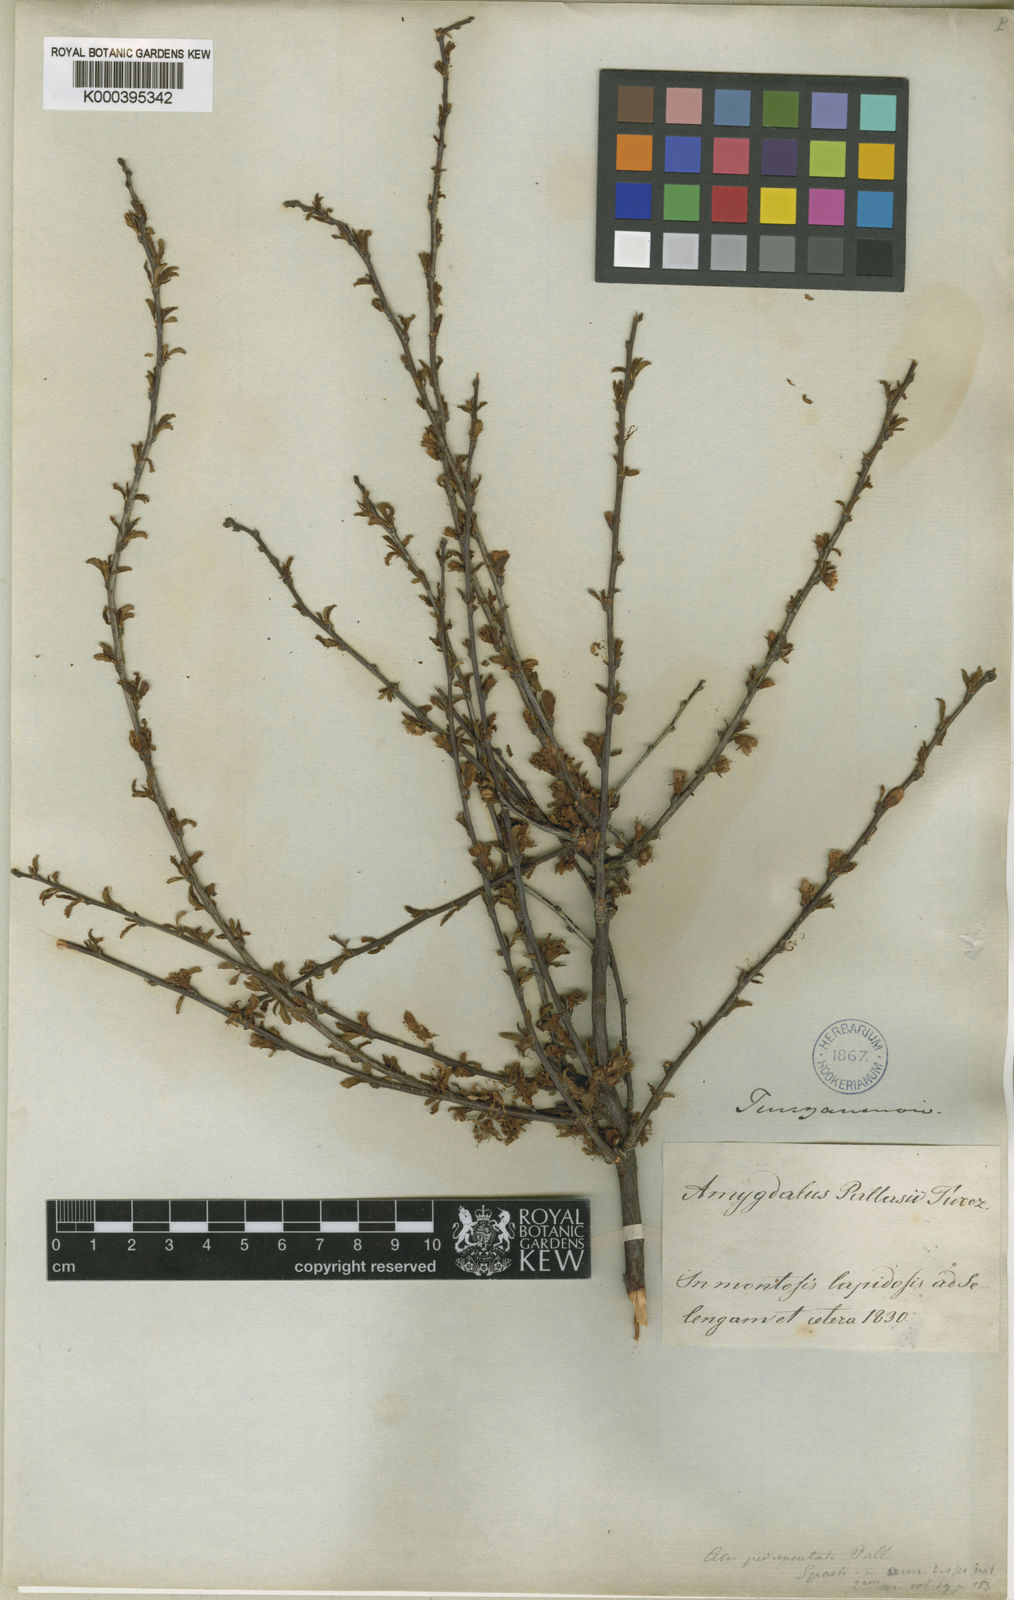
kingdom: Plantae
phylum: Tracheophyta
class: Magnoliopsida
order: Rosales
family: Rosaceae
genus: Prunus
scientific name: Prunus
